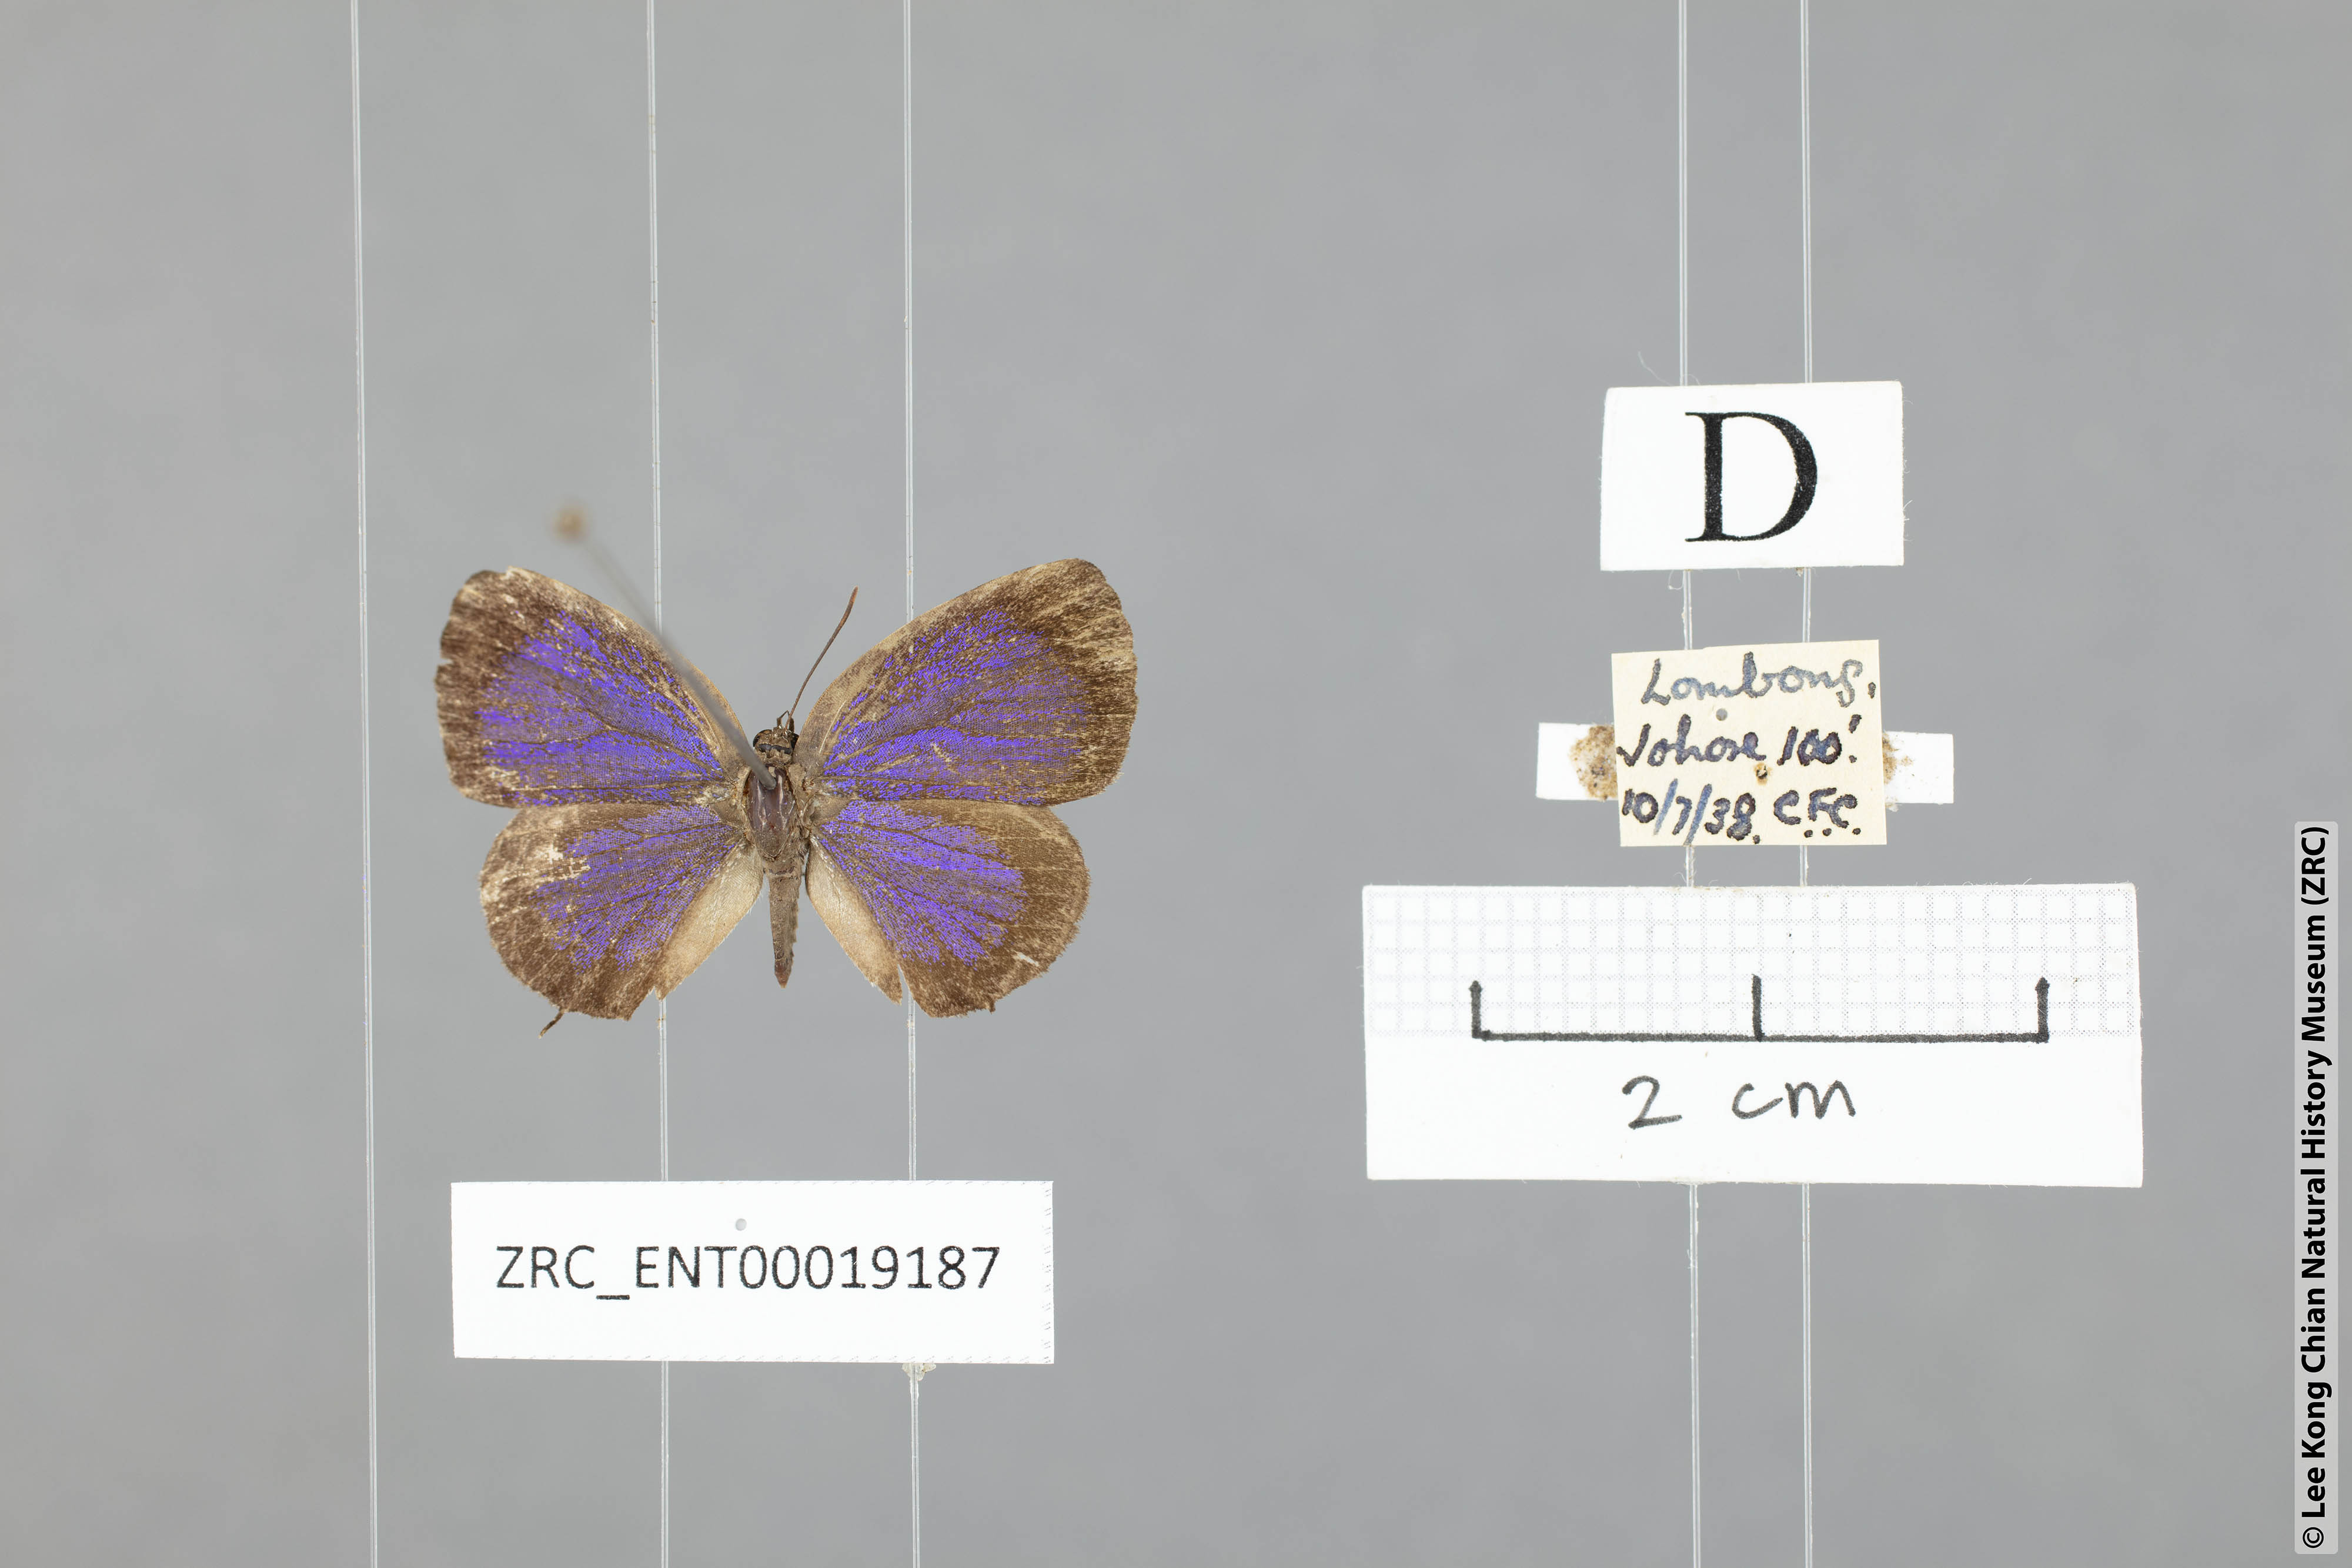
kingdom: Animalia
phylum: Arthropoda
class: Insecta
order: Lepidoptera
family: Lycaenidae
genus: Arhopala
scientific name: Arhopala ariel
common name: Chocolate oakblue
